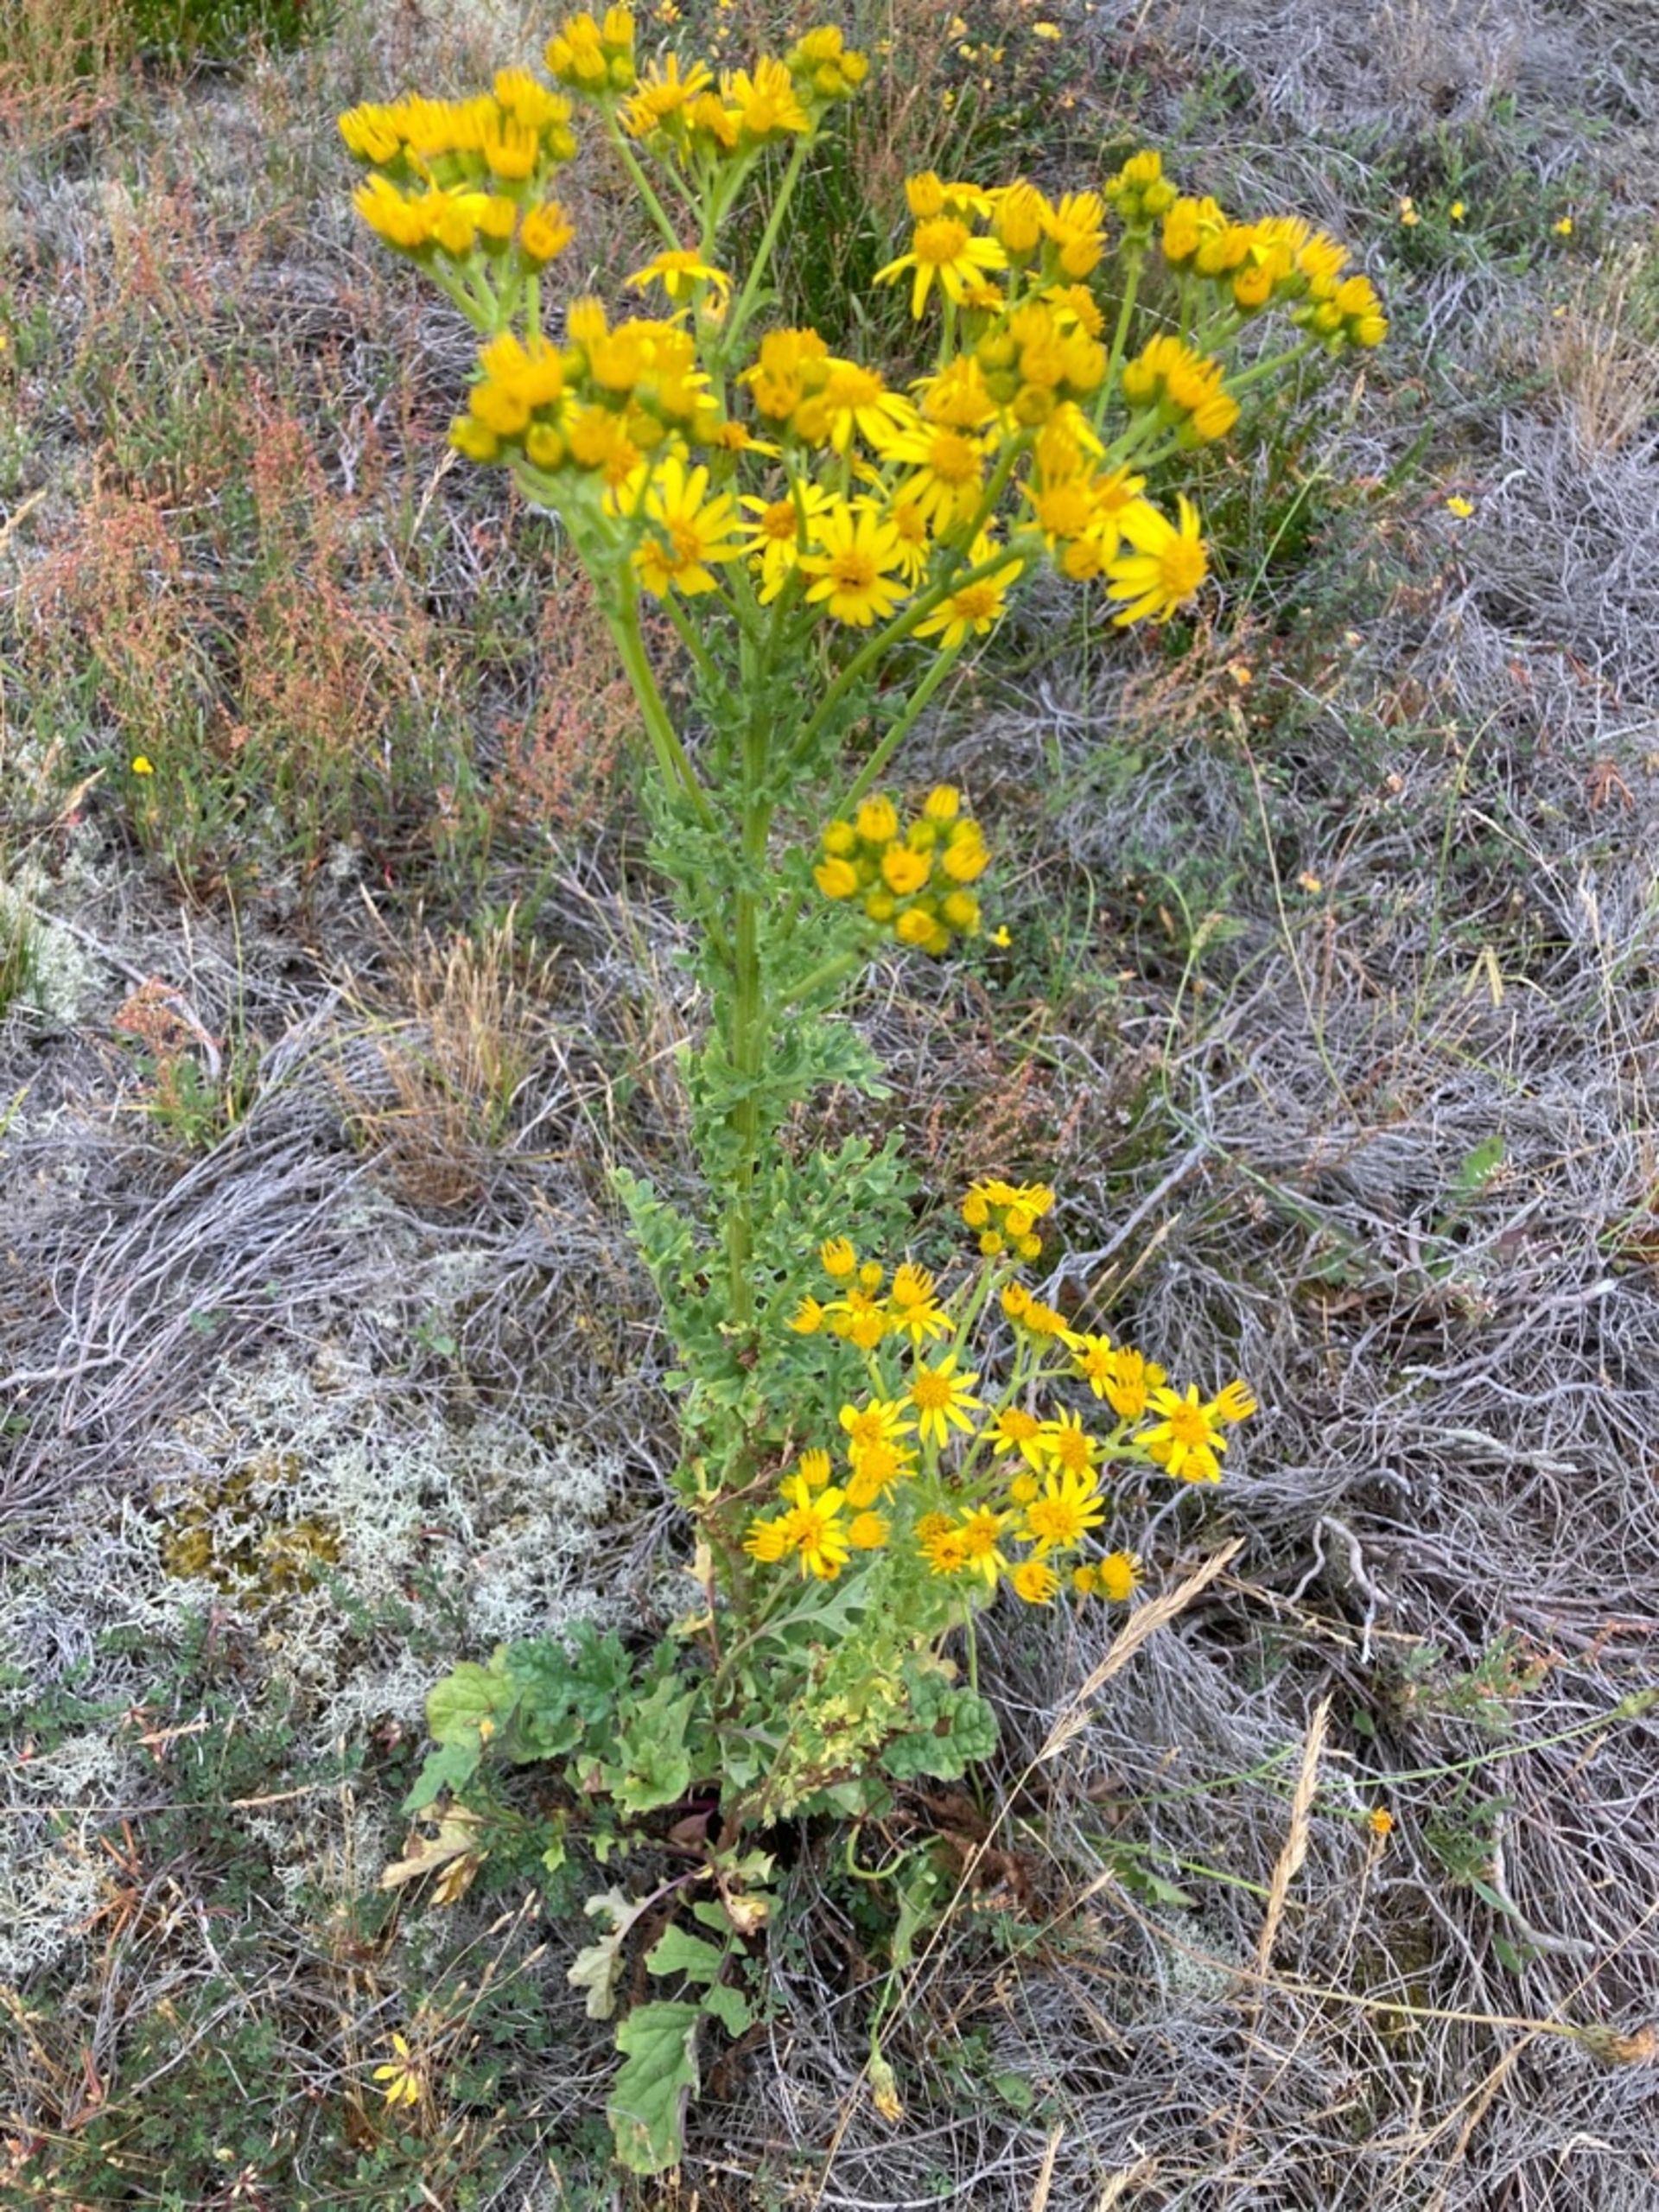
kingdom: Plantae
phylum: Tracheophyta
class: Magnoliopsida
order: Asterales
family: Asteraceae
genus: Jacobaea
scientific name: Jacobaea vulgaris
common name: Eng-brandbæger
